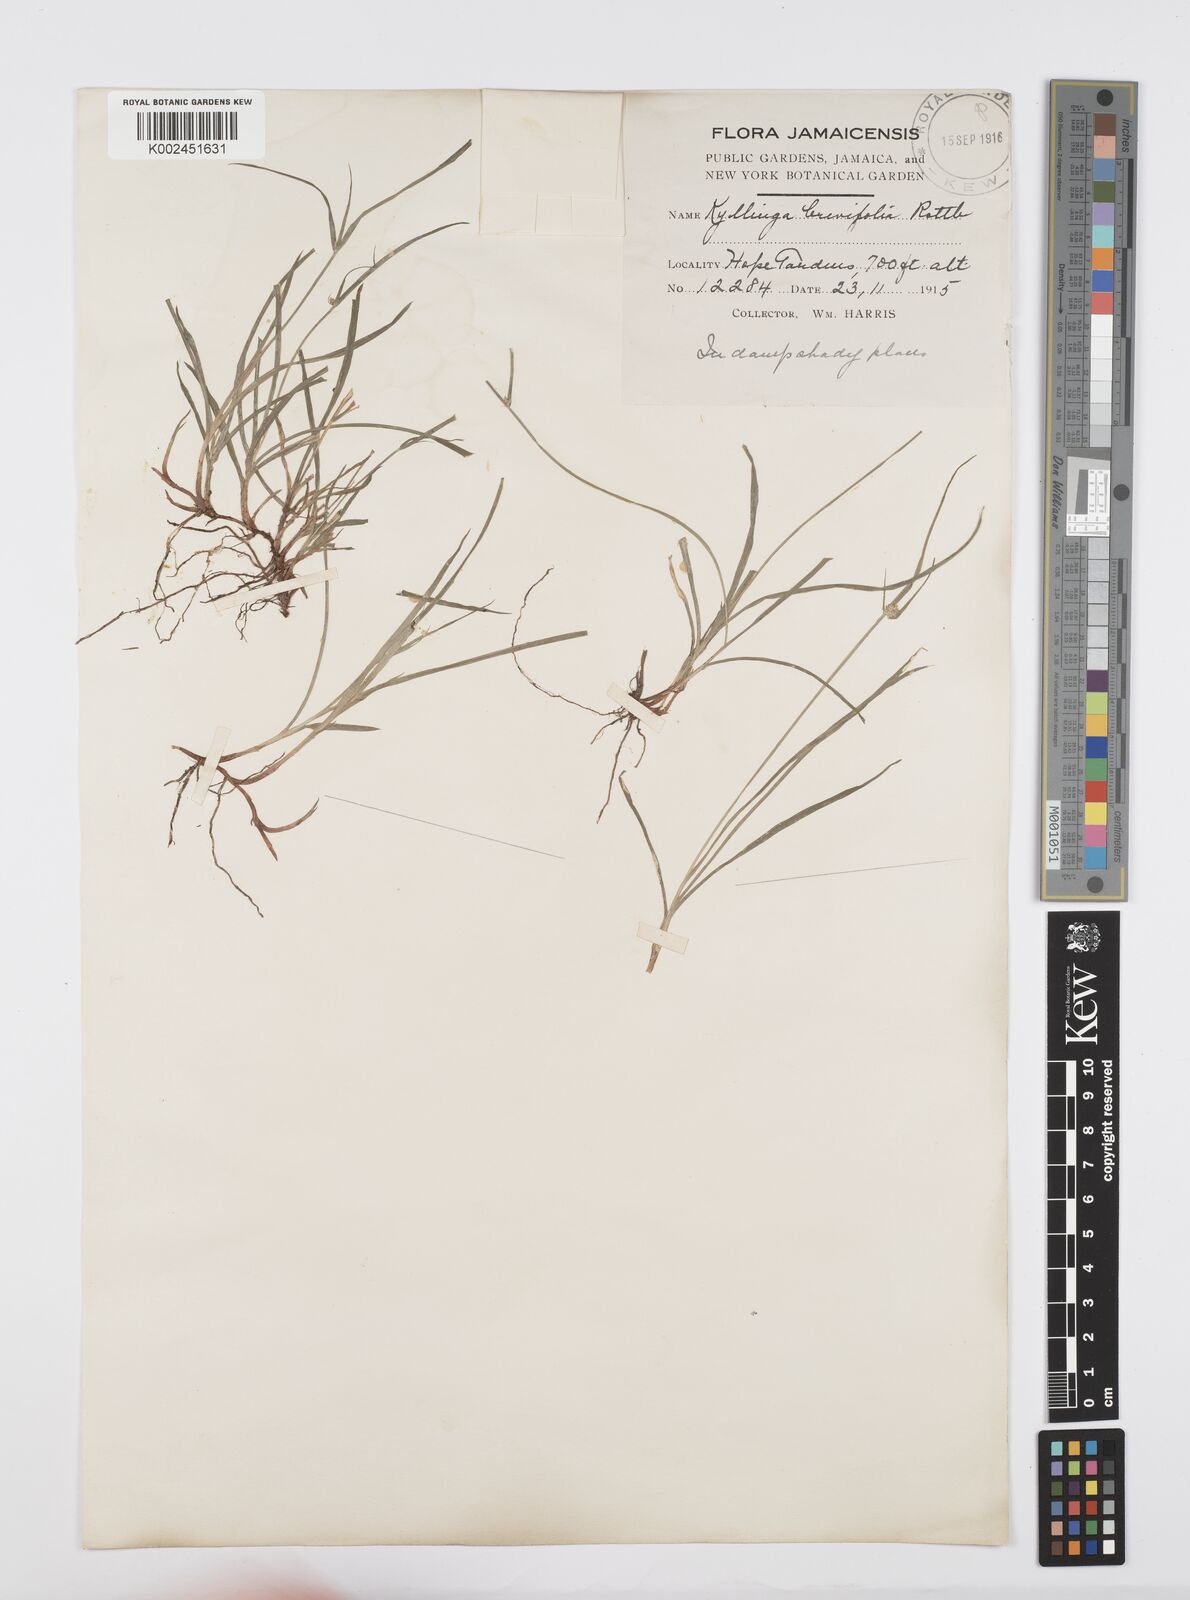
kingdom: Plantae
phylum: Tracheophyta
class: Liliopsida
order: Poales
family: Cyperaceae
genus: Cyperus
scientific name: Cyperus brevifolius
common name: Globe kyllinga
